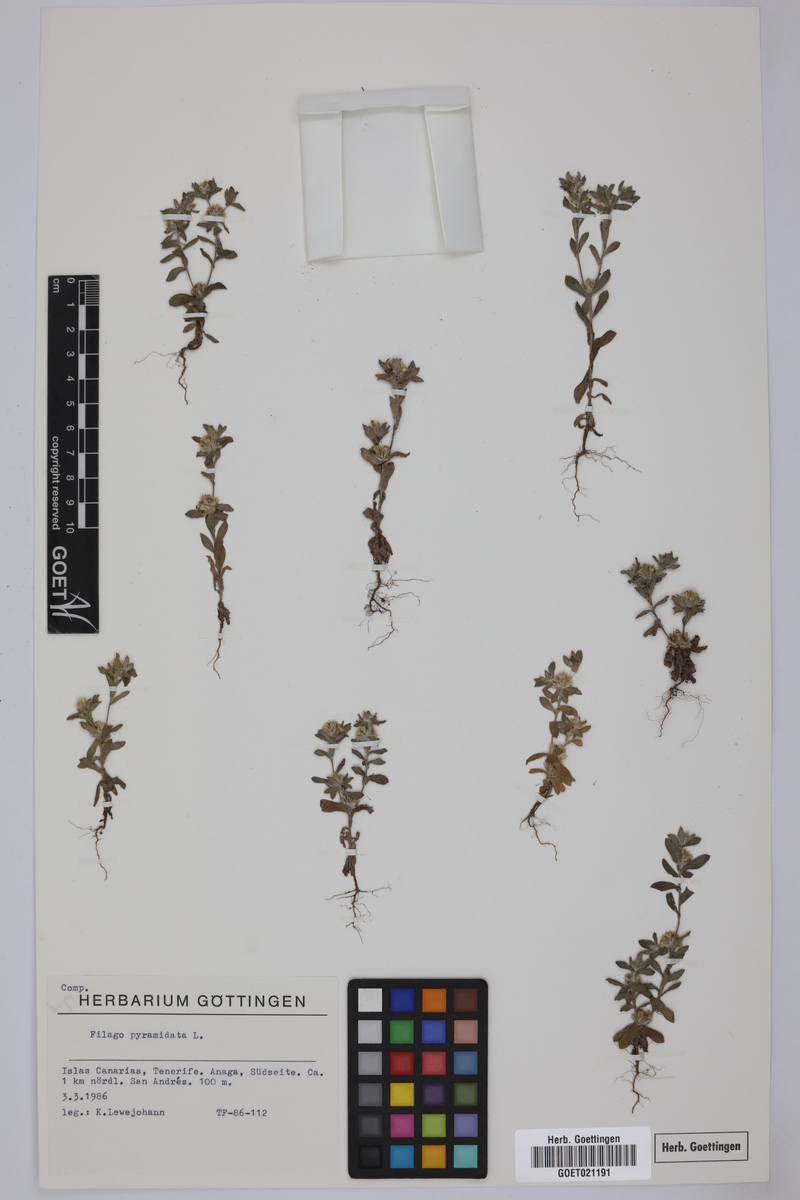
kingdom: Plantae
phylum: Tracheophyta
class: Magnoliopsida
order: Asterales
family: Asteraceae
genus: Filago
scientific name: Filago pyramidata
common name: Broad-leaved cudweed
